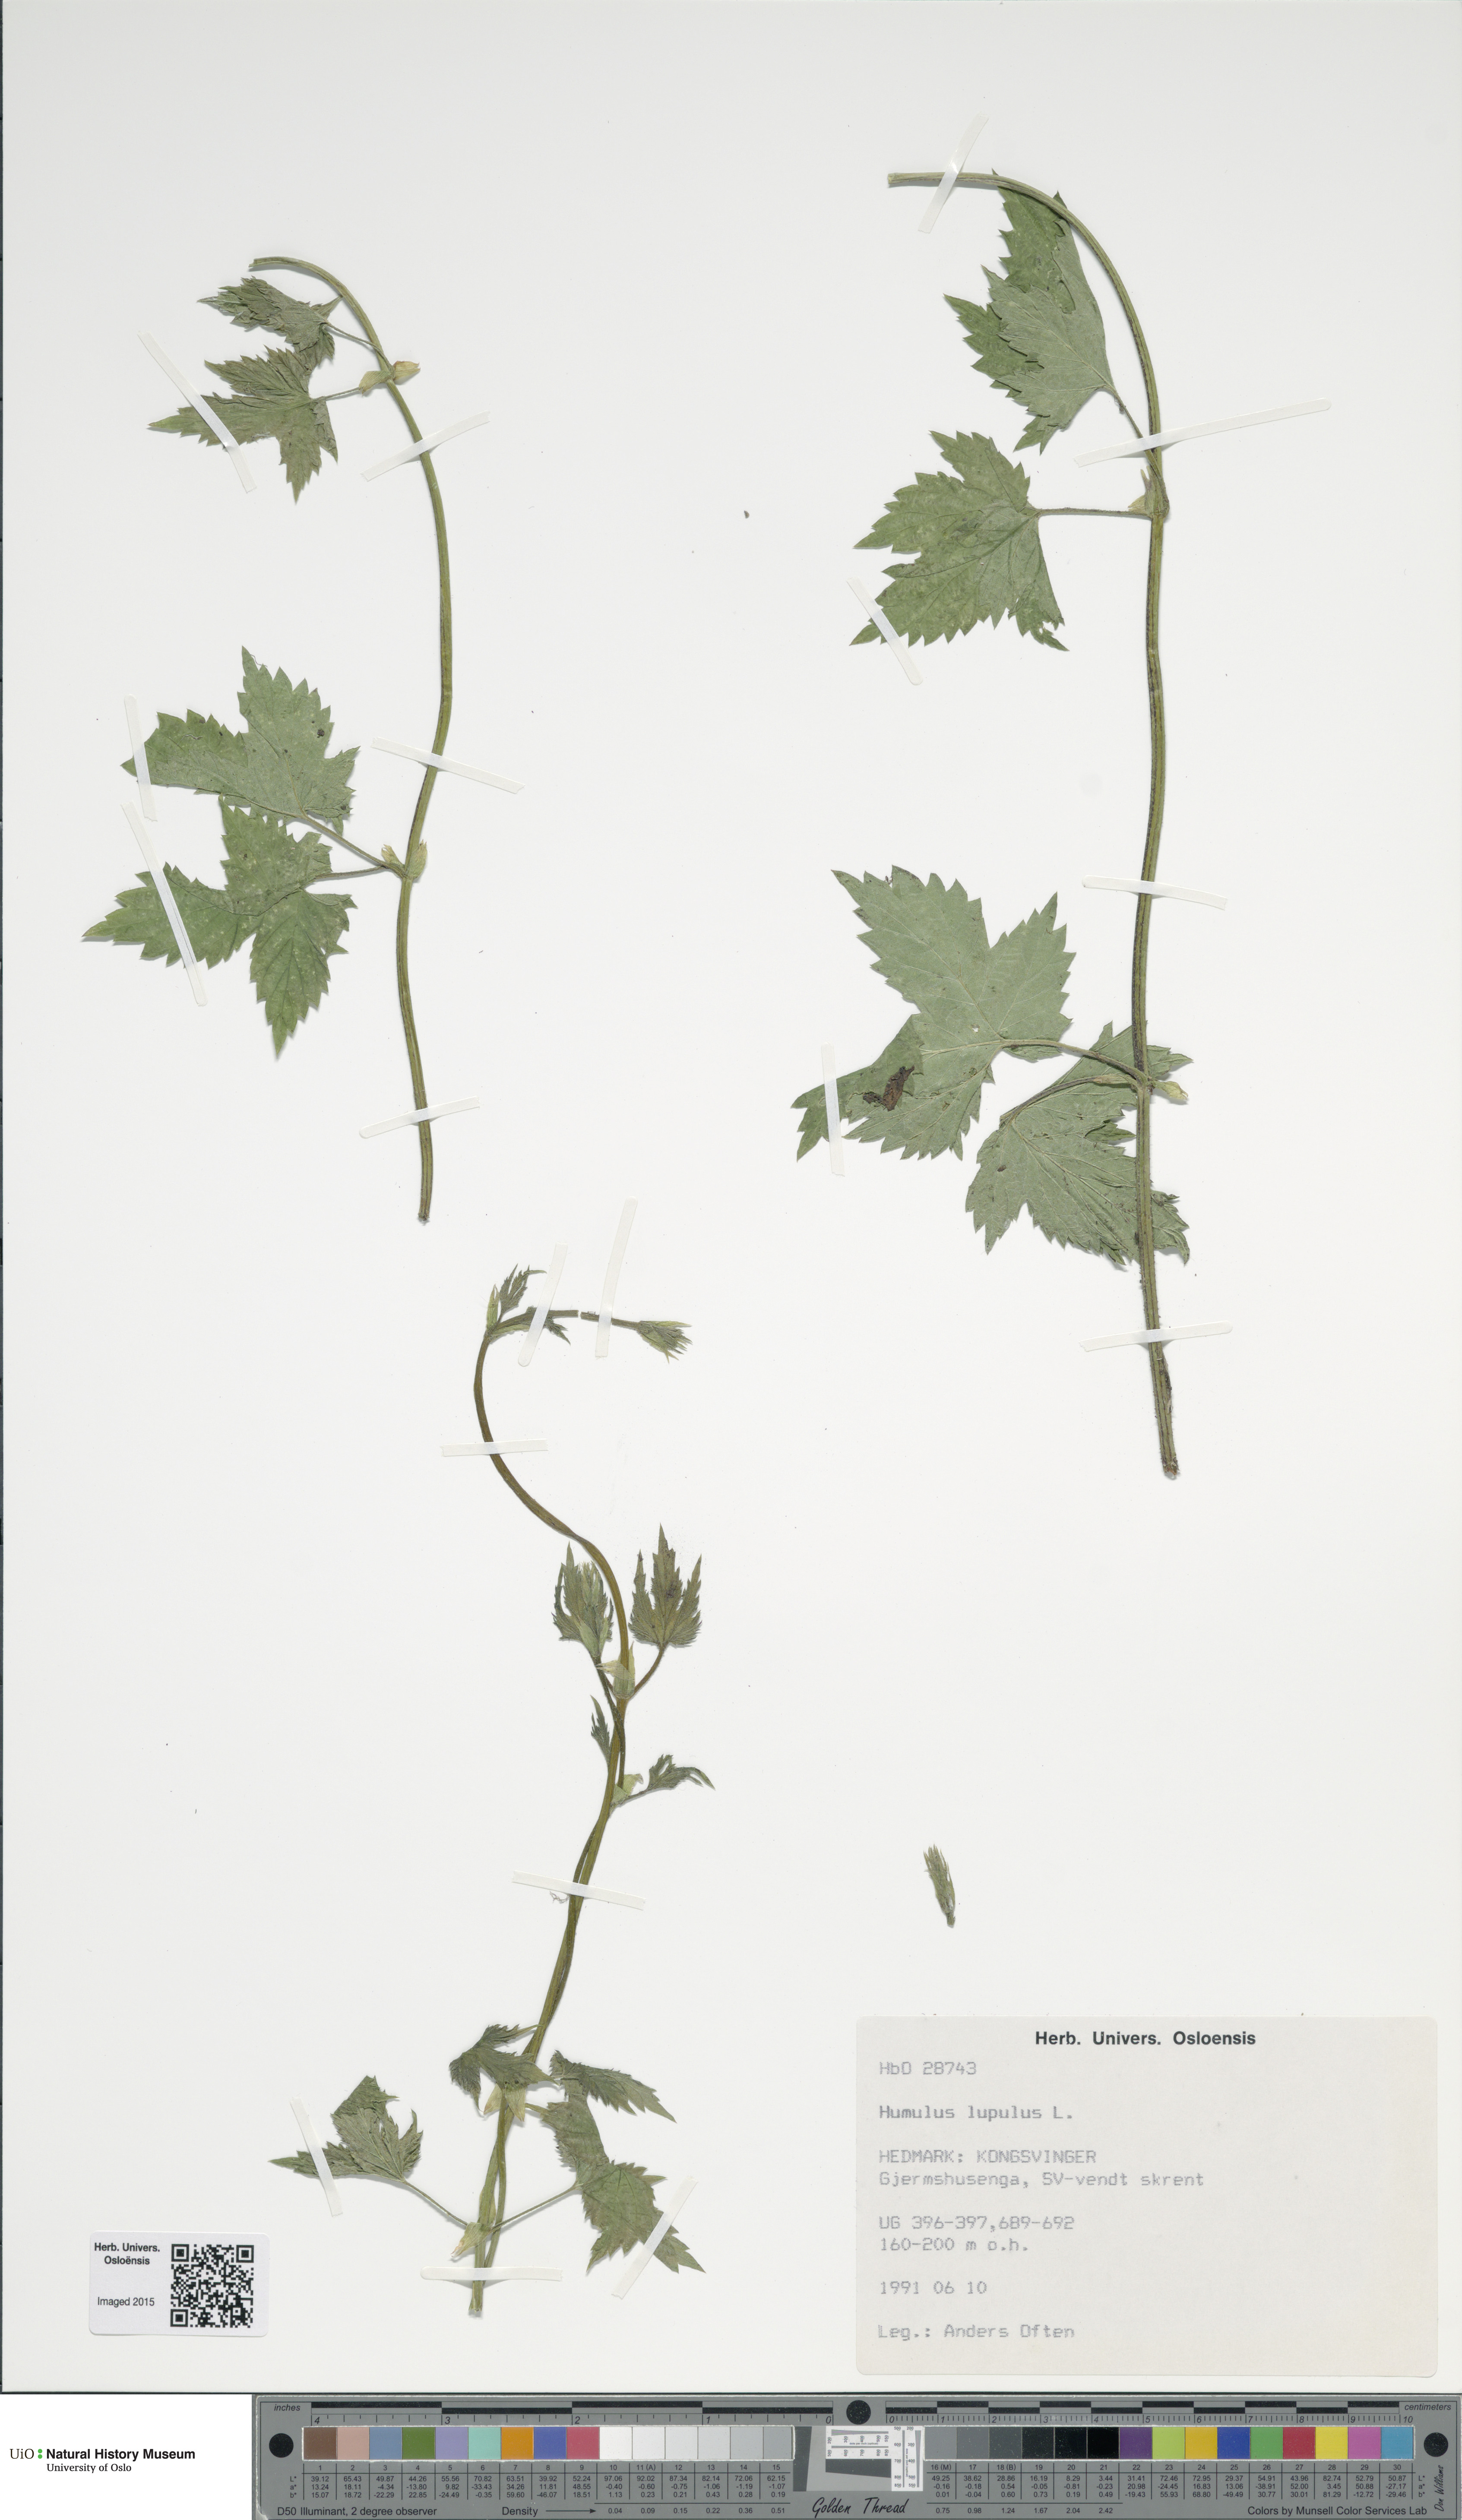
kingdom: Plantae
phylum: Tracheophyta
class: Magnoliopsida
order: Rosales
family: Cannabaceae
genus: Humulus
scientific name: Humulus lupulus
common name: Hop
